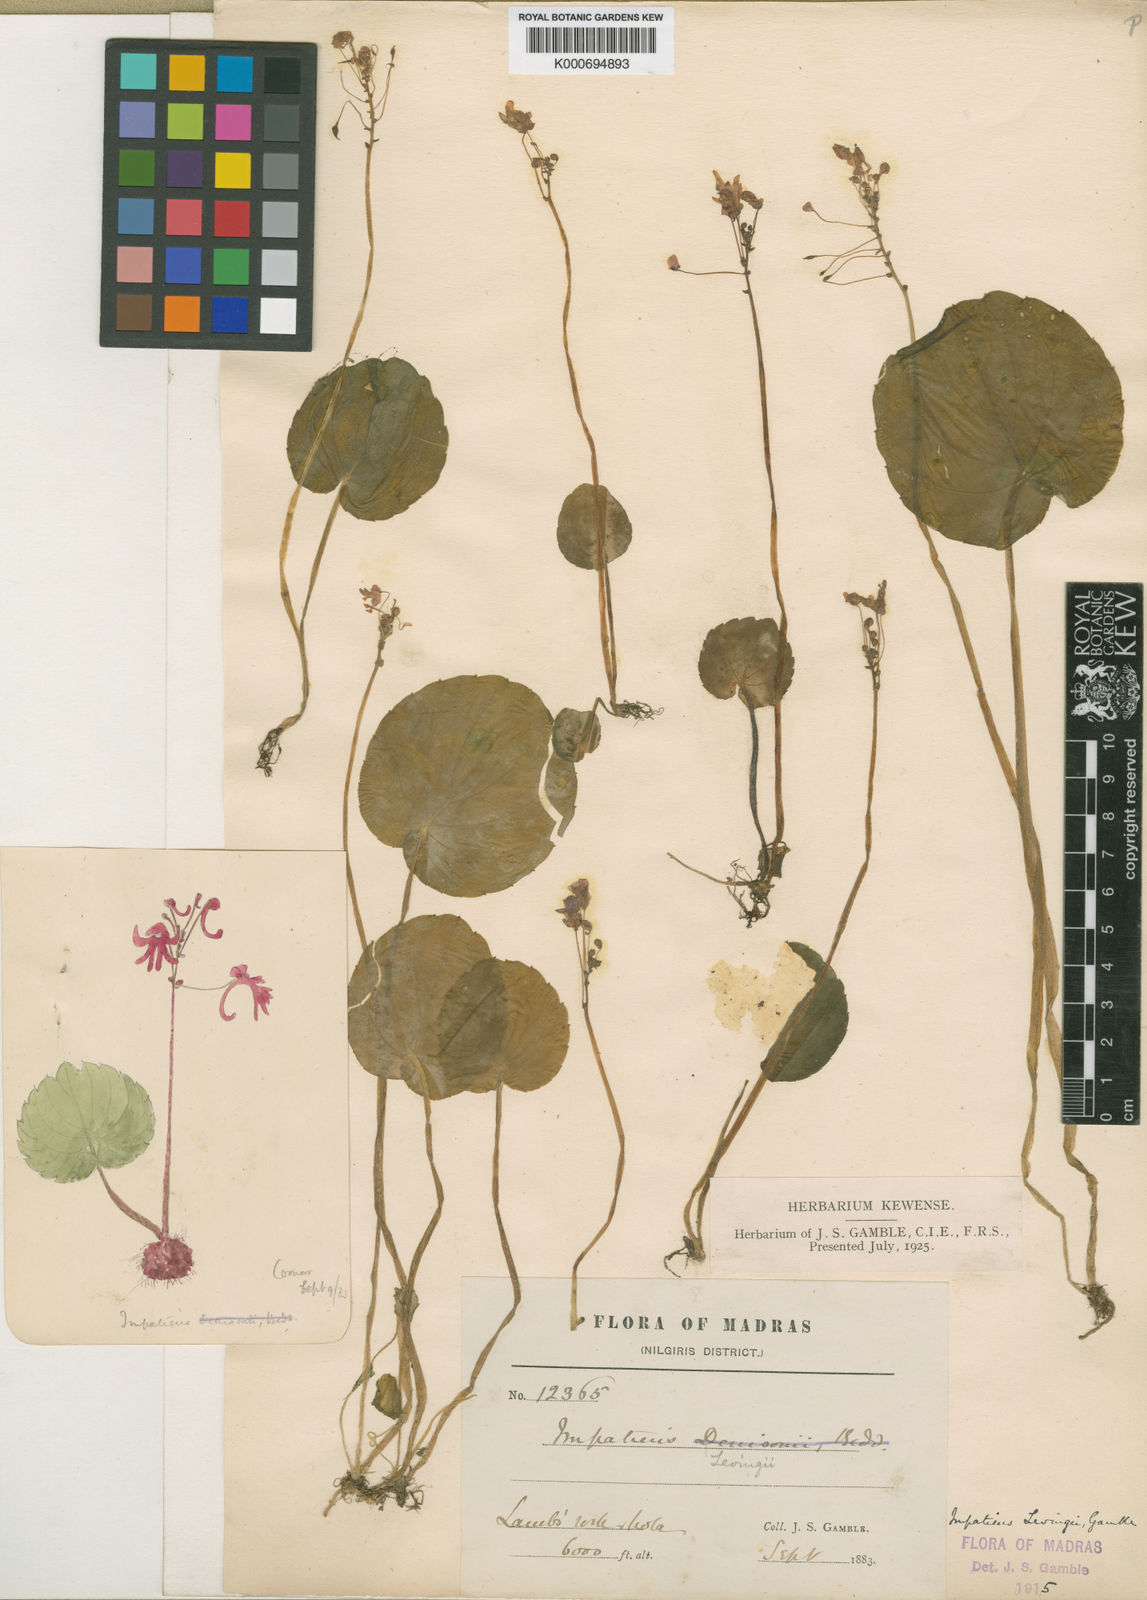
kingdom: Plantae
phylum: Tracheophyta
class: Magnoliopsida
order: Ericales
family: Balsaminaceae
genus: Impatiens
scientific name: Impatiens clavicornu
